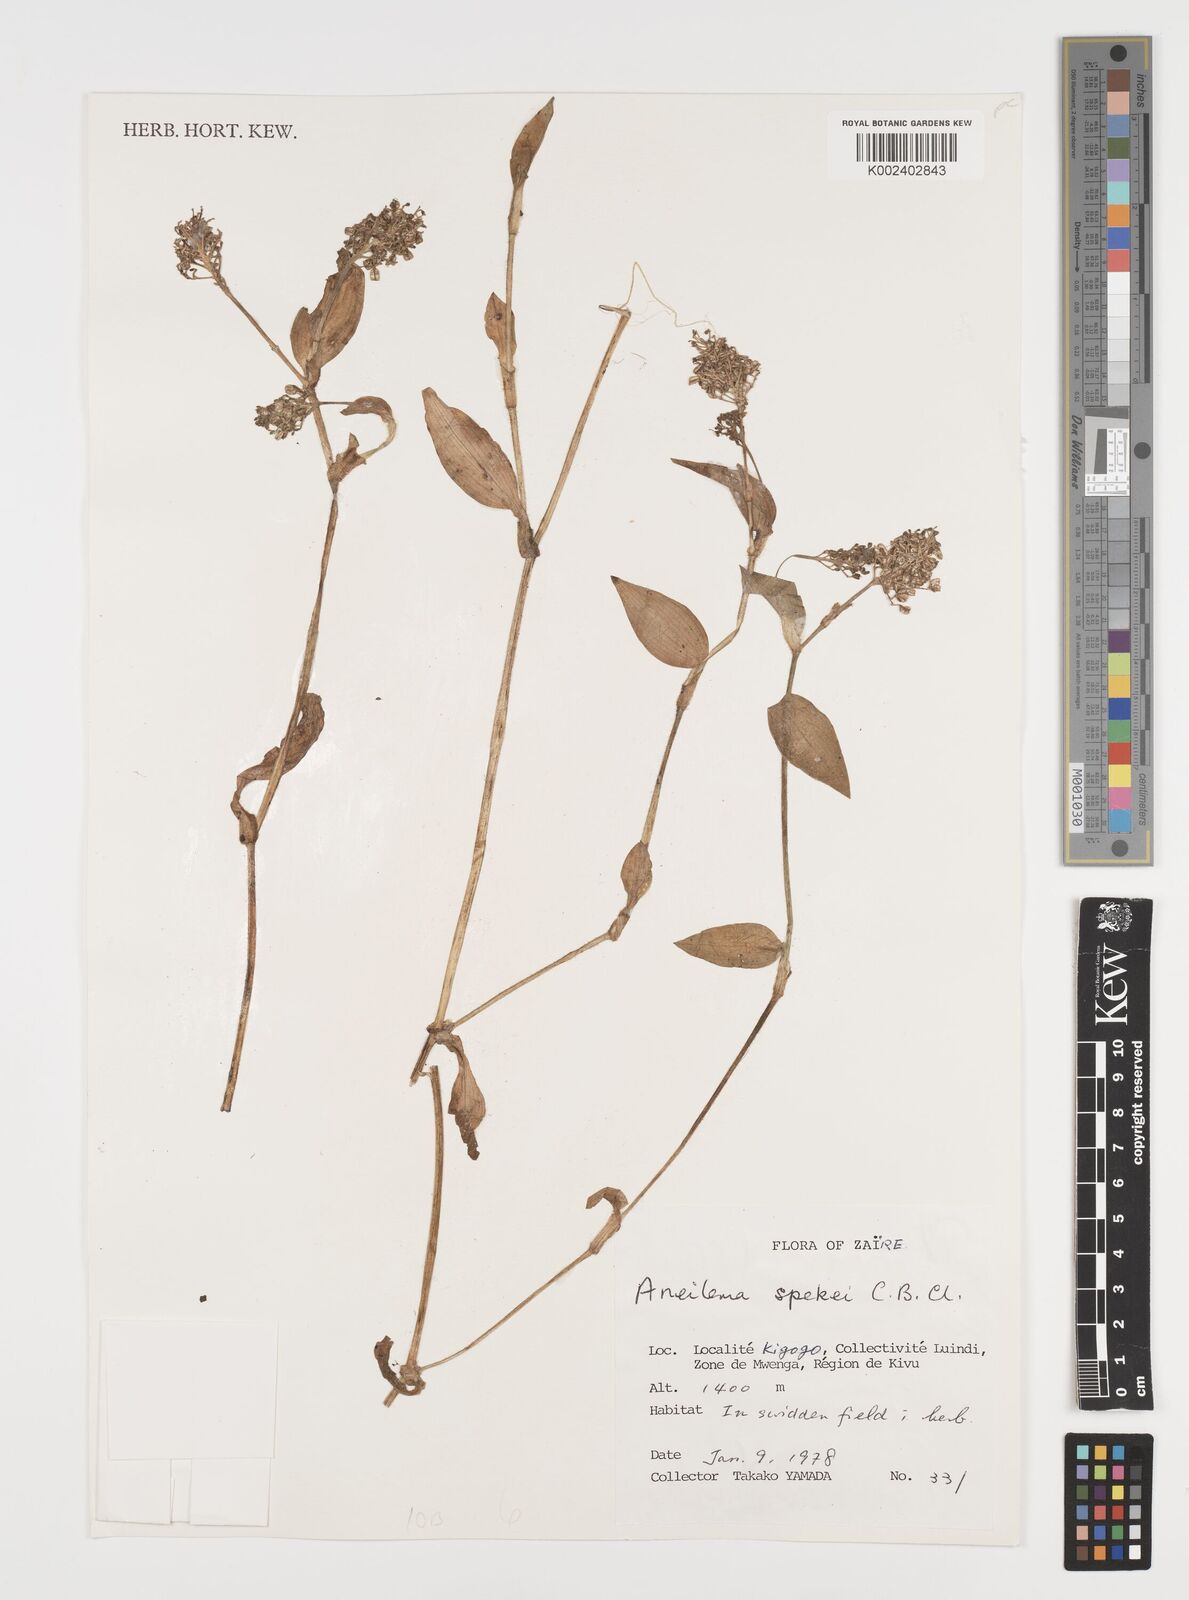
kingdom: Plantae
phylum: Tracheophyta
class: Liliopsida
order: Commelinales
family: Commelinaceae
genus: Aneilema
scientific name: Aneilema spekei
